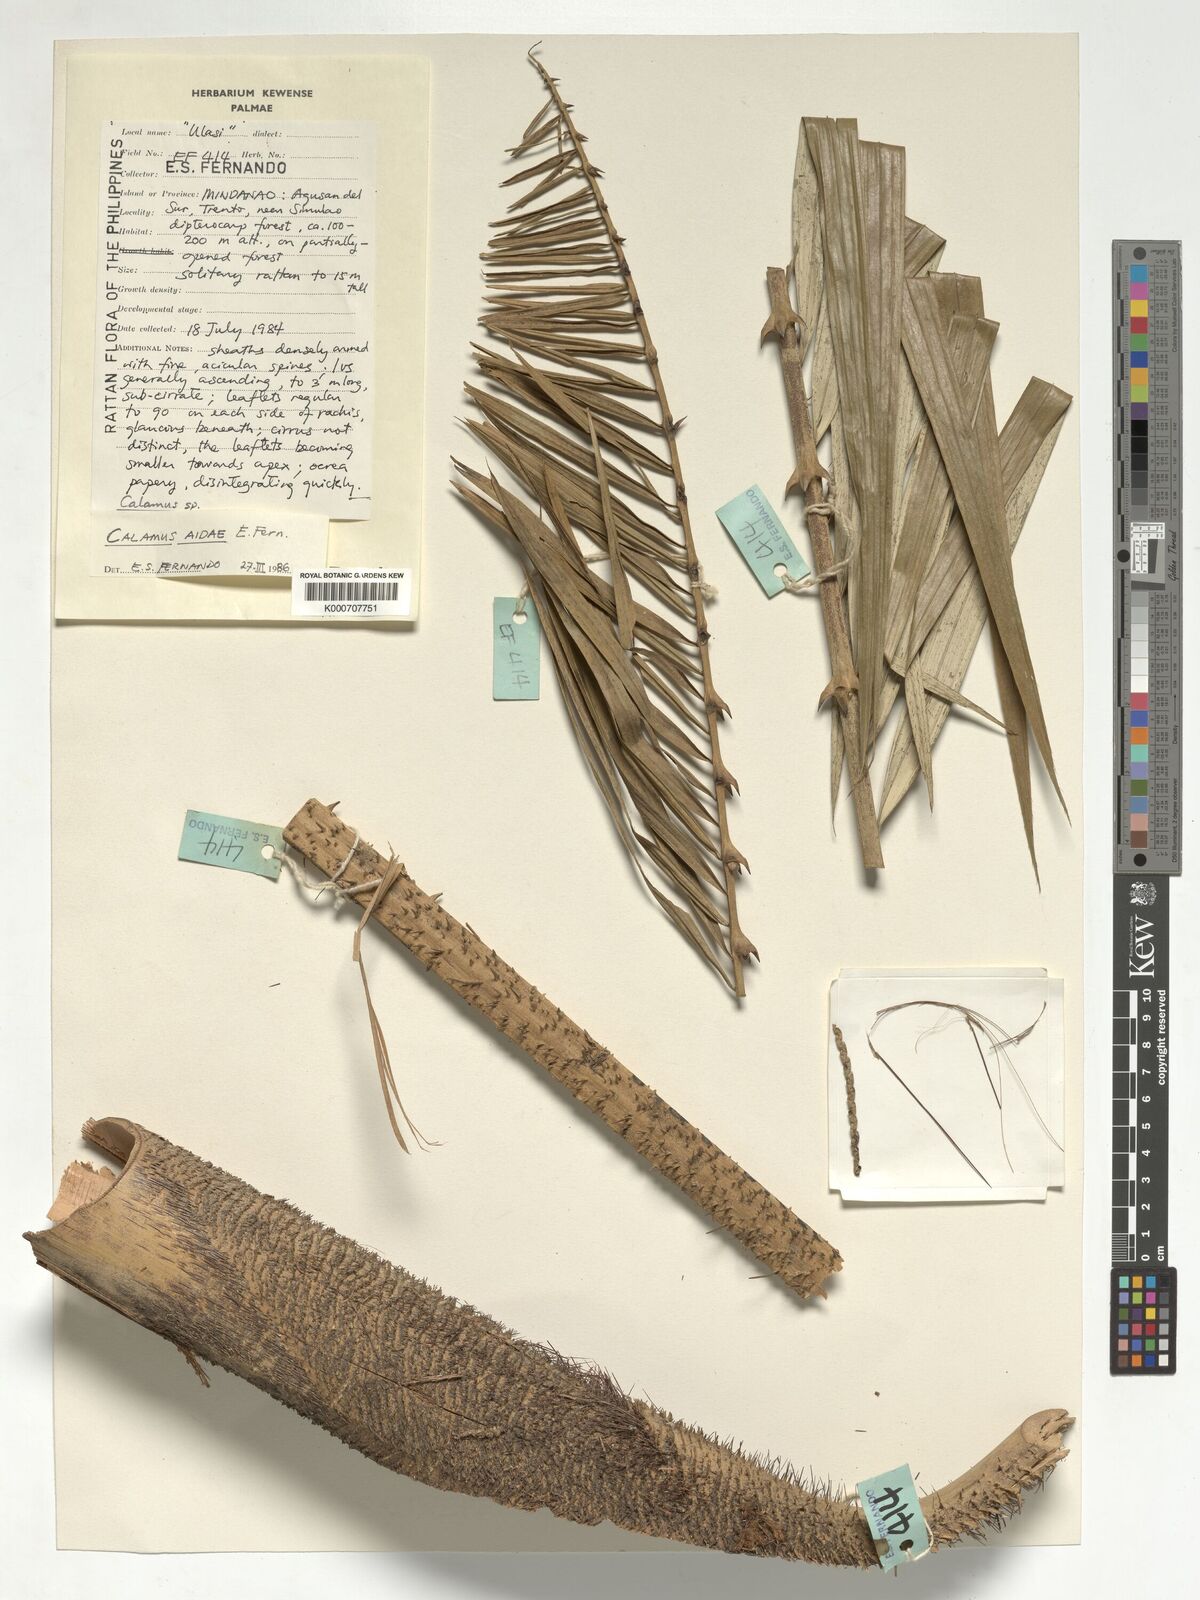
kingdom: Plantae
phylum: Tracheophyta
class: Liliopsida
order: Arecales
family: Arecaceae
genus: Calamus
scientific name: Calamus aidae
